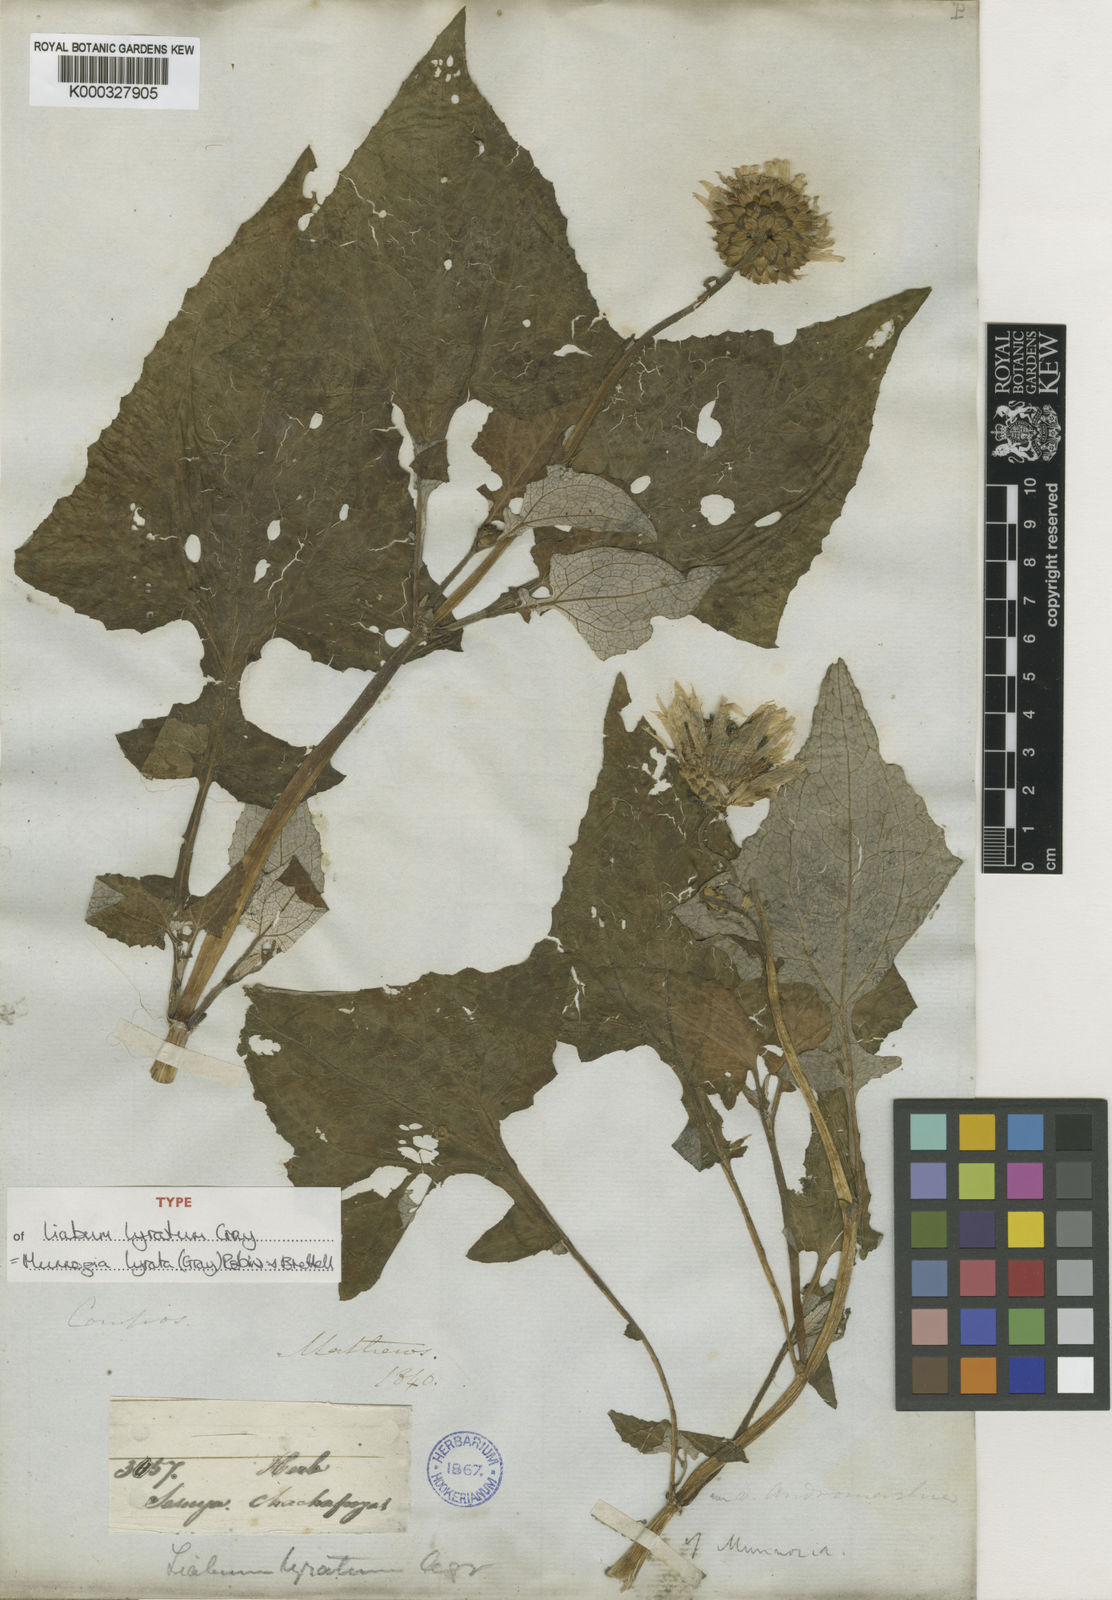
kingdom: Plantae
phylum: Tracheophyta
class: Magnoliopsida
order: Asterales
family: Asteraceae
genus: Munnozia
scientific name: Munnozia lyrata
